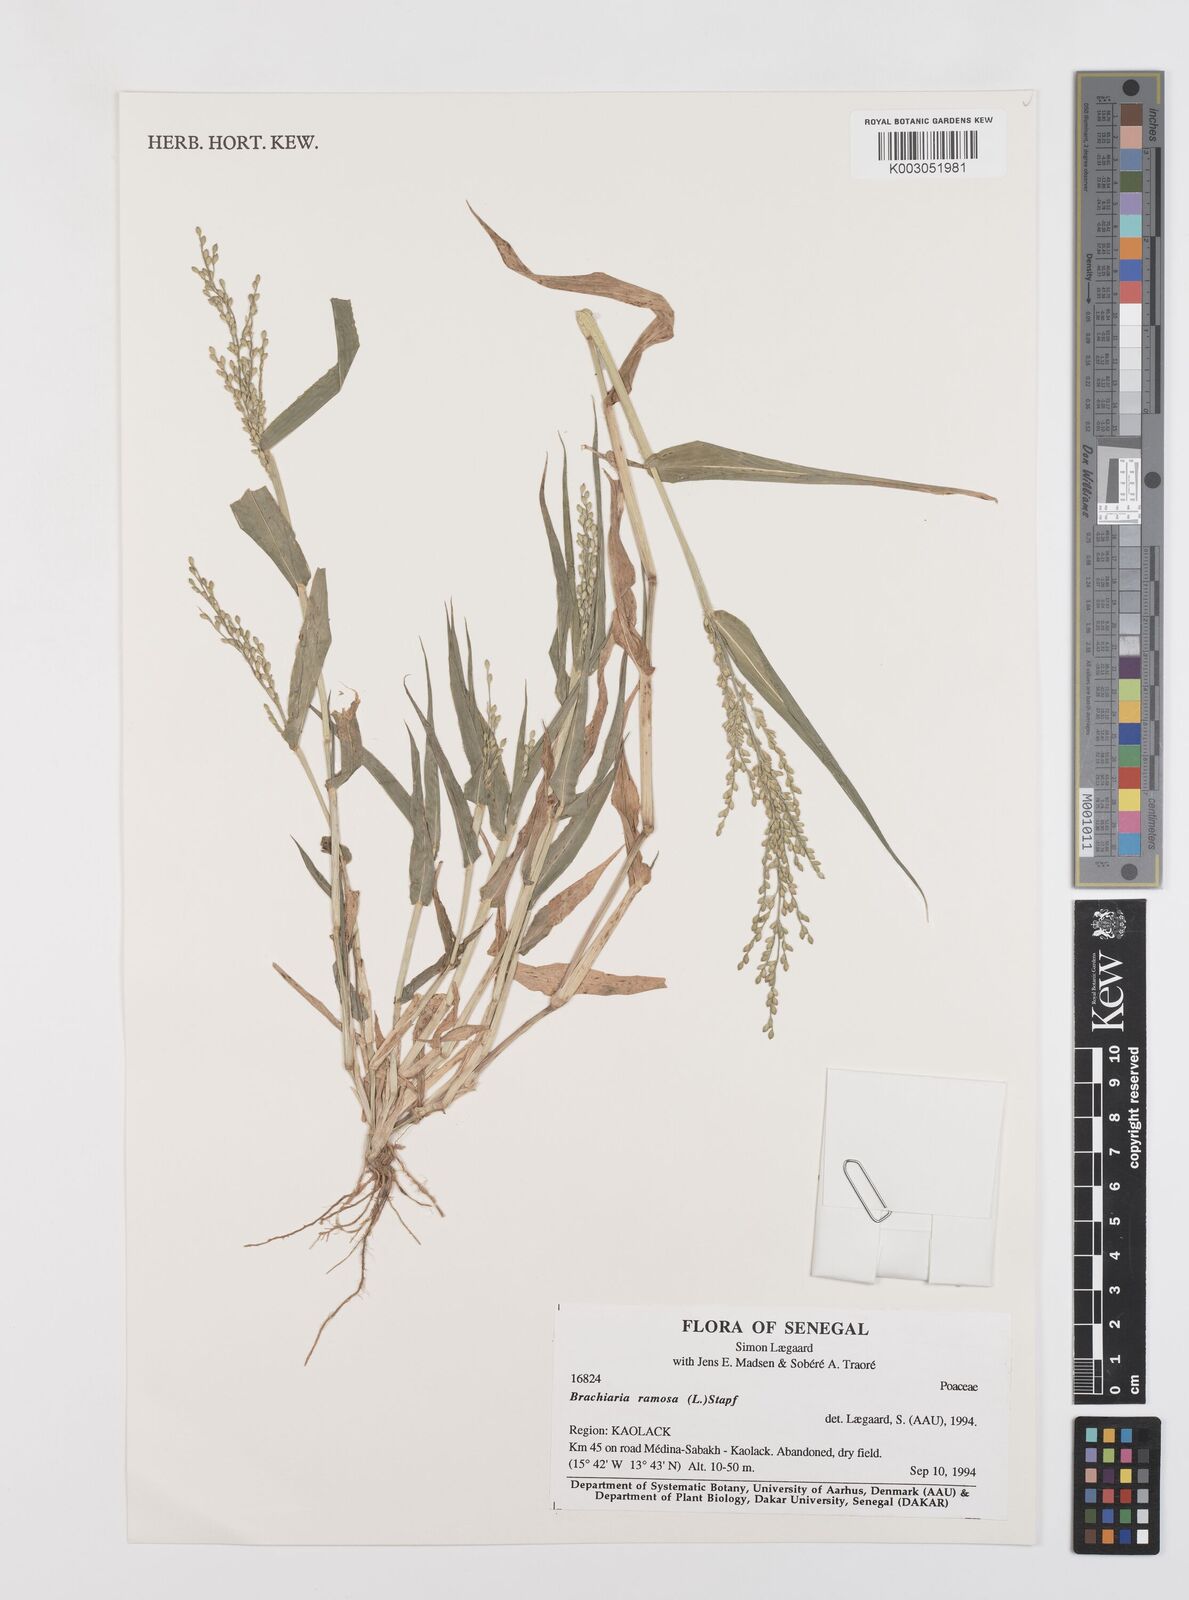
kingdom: Plantae
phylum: Tracheophyta
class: Liliopsida
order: Poales
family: Poaceae
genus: Urochloa
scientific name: Urochloa ramosa
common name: Browntop millet
